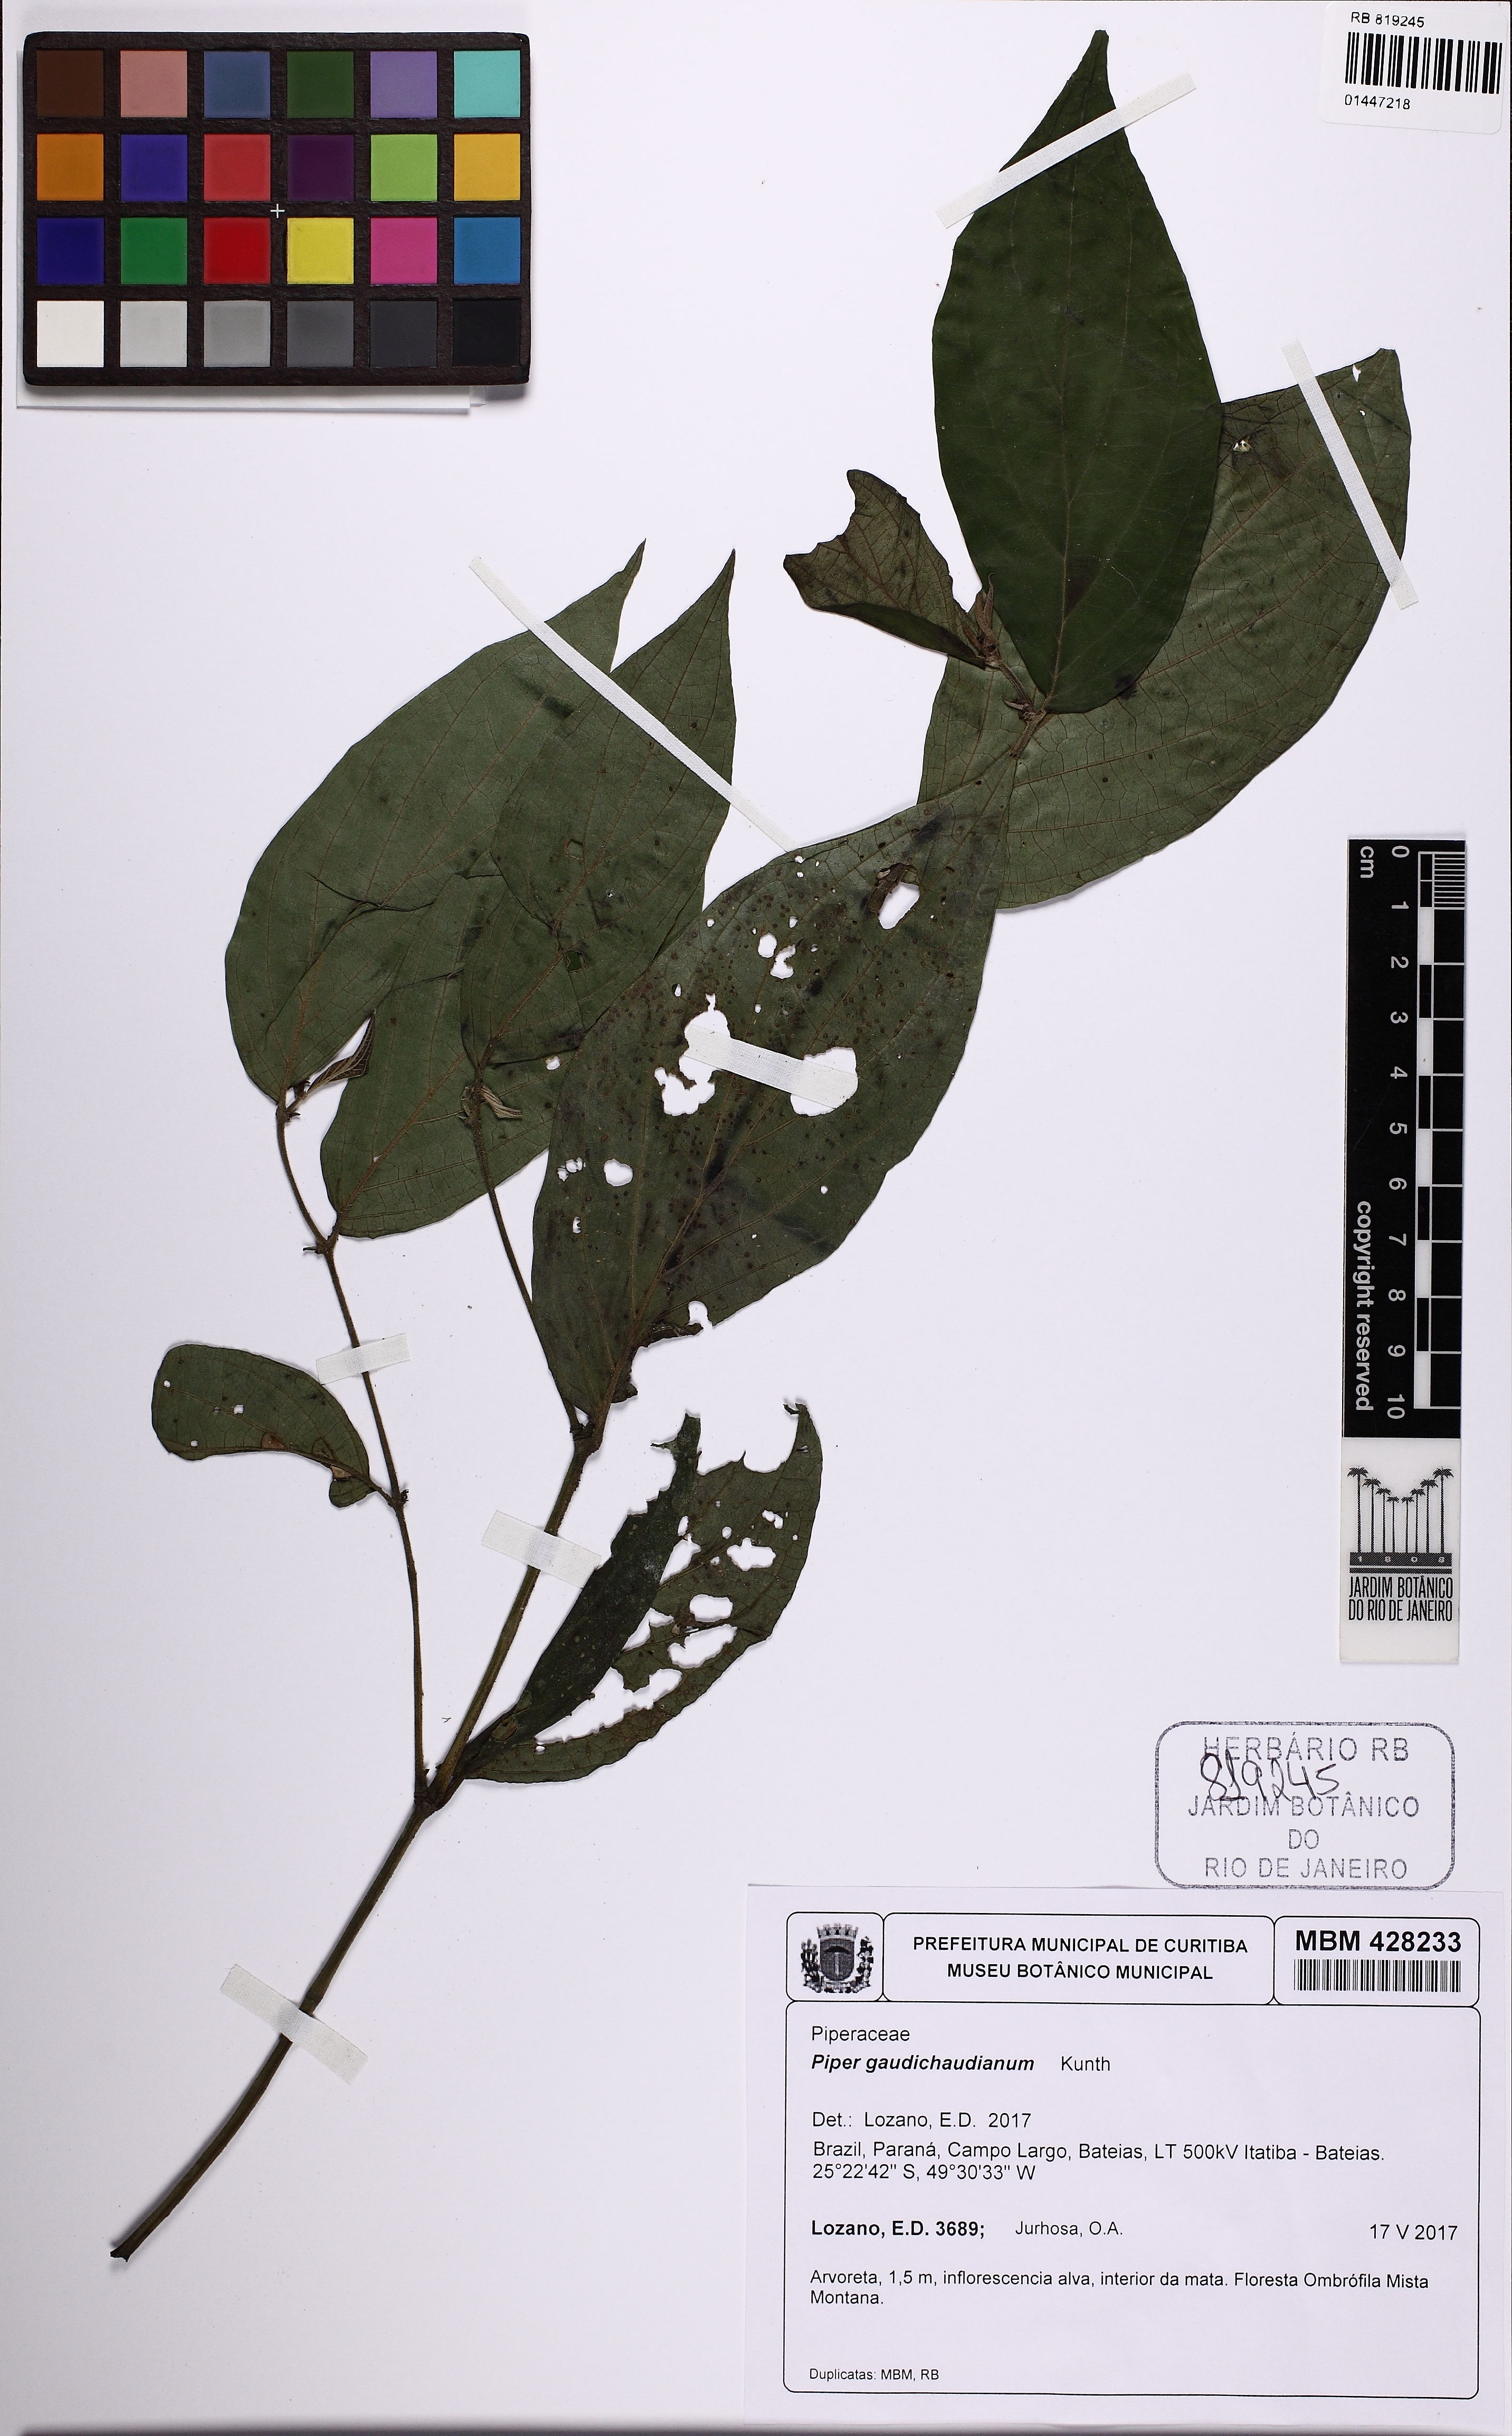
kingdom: Plantae
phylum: Tracheophyta
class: Magnoliopsida
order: Piperales
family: Piperaceae
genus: Piper
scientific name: Piper gaudichaudianum
